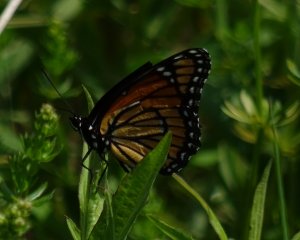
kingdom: Animalia
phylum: Arthropoda
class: Insecta
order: Lepidoptera
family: Nymphalidae
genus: Limenitis
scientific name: Limenitis archippus
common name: Viceroy
